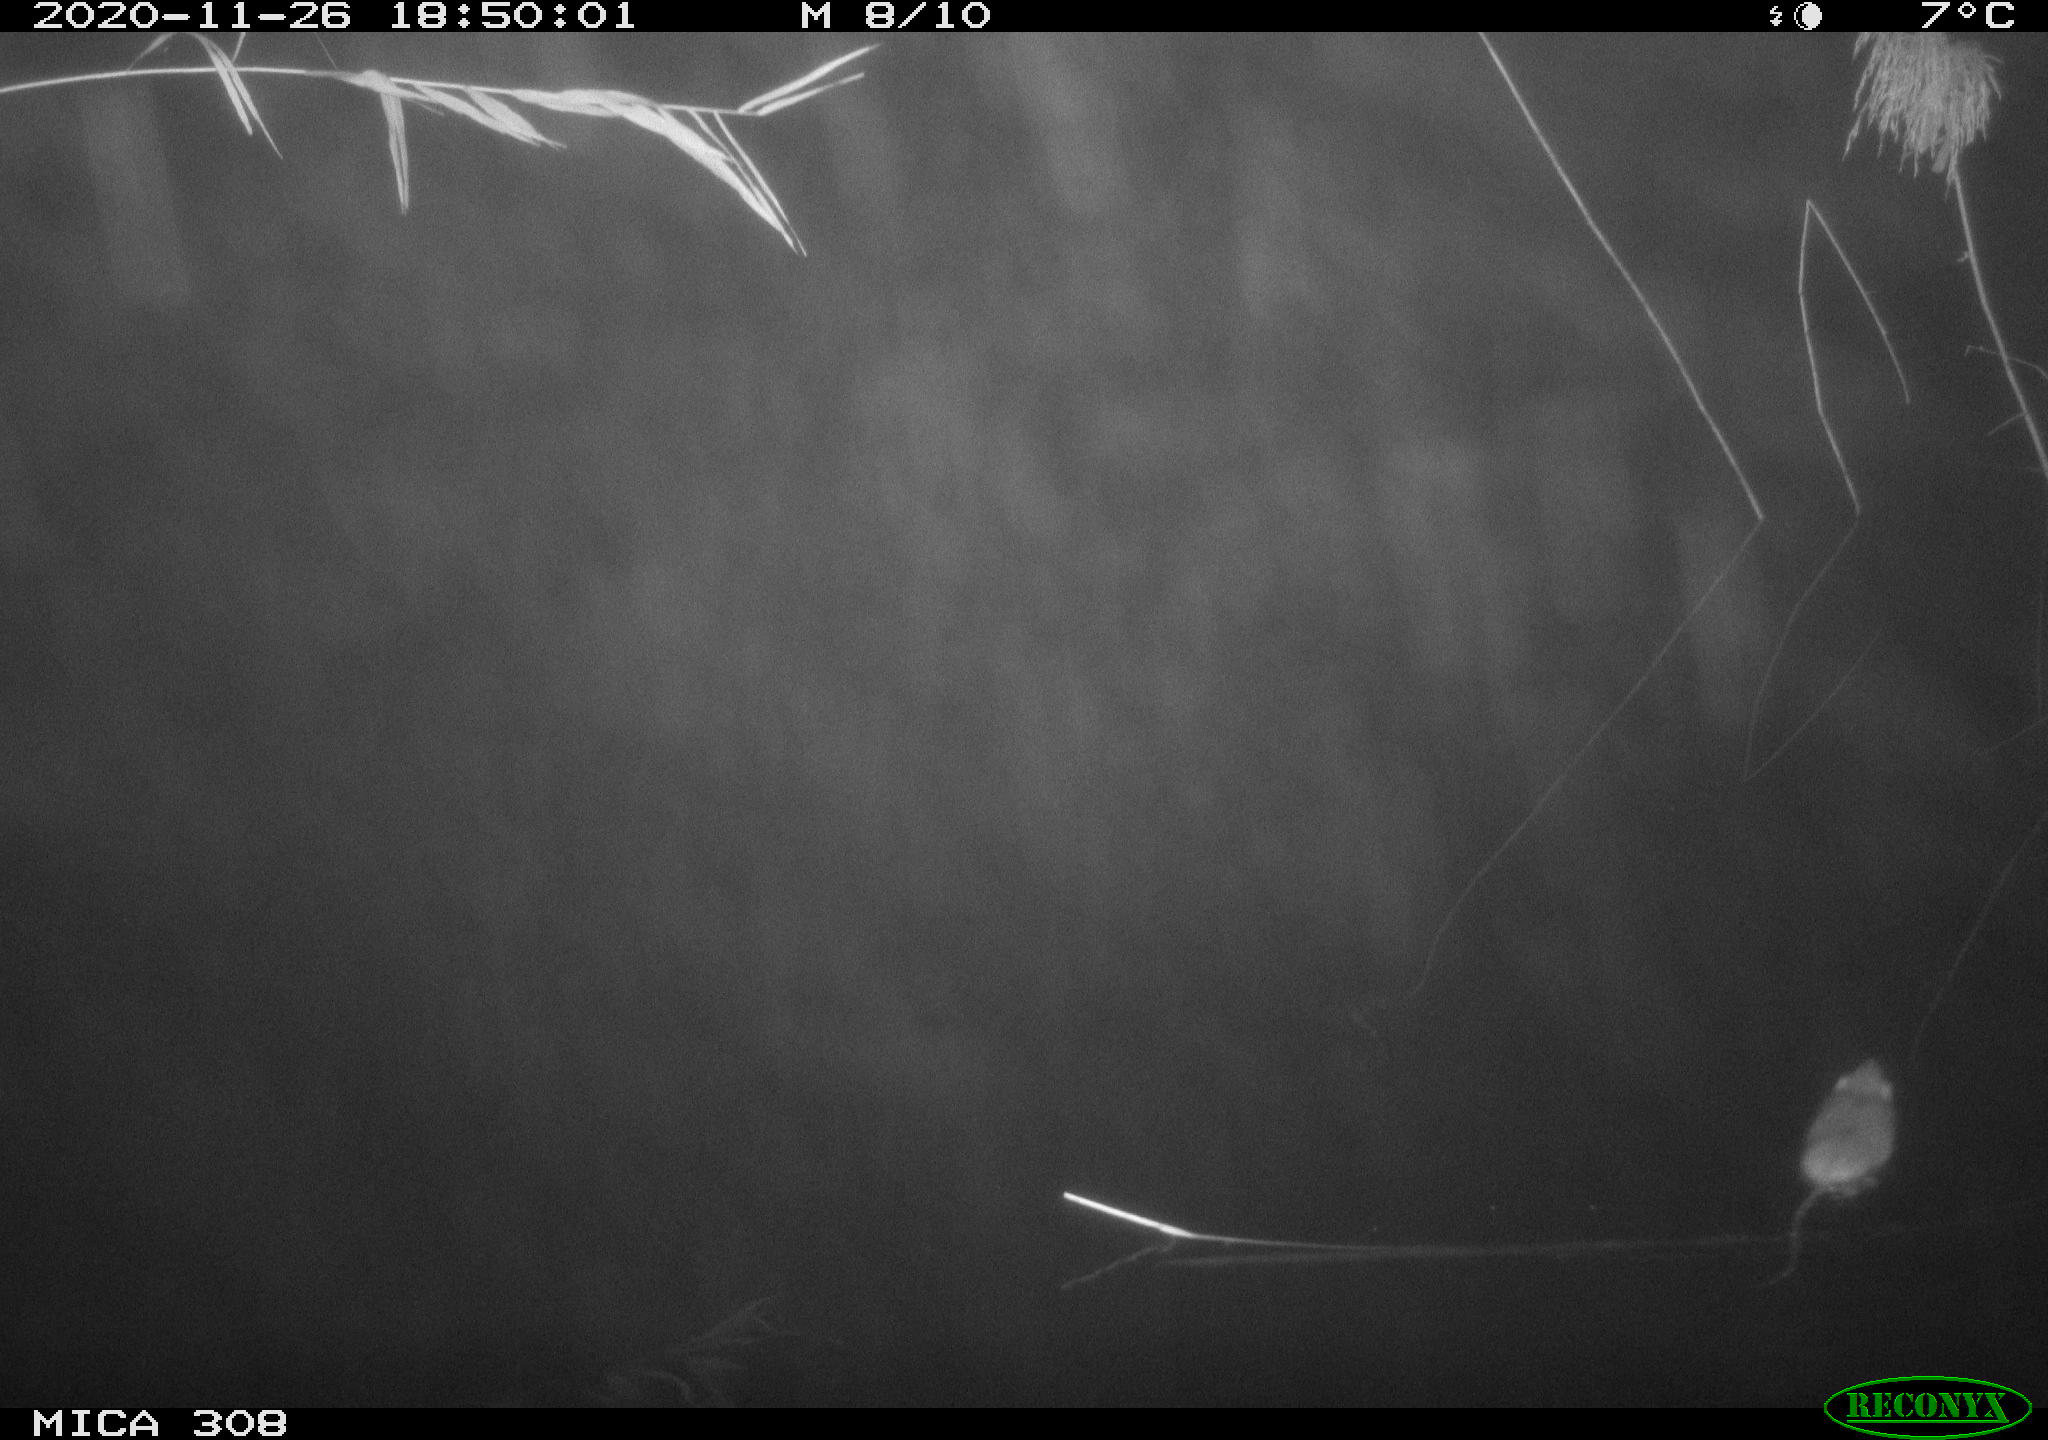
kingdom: Animalia
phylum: Chordata
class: Mammalia
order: Rodentia
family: Muridae
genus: Rattus
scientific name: Rattus norvegicus
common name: Brown rat
